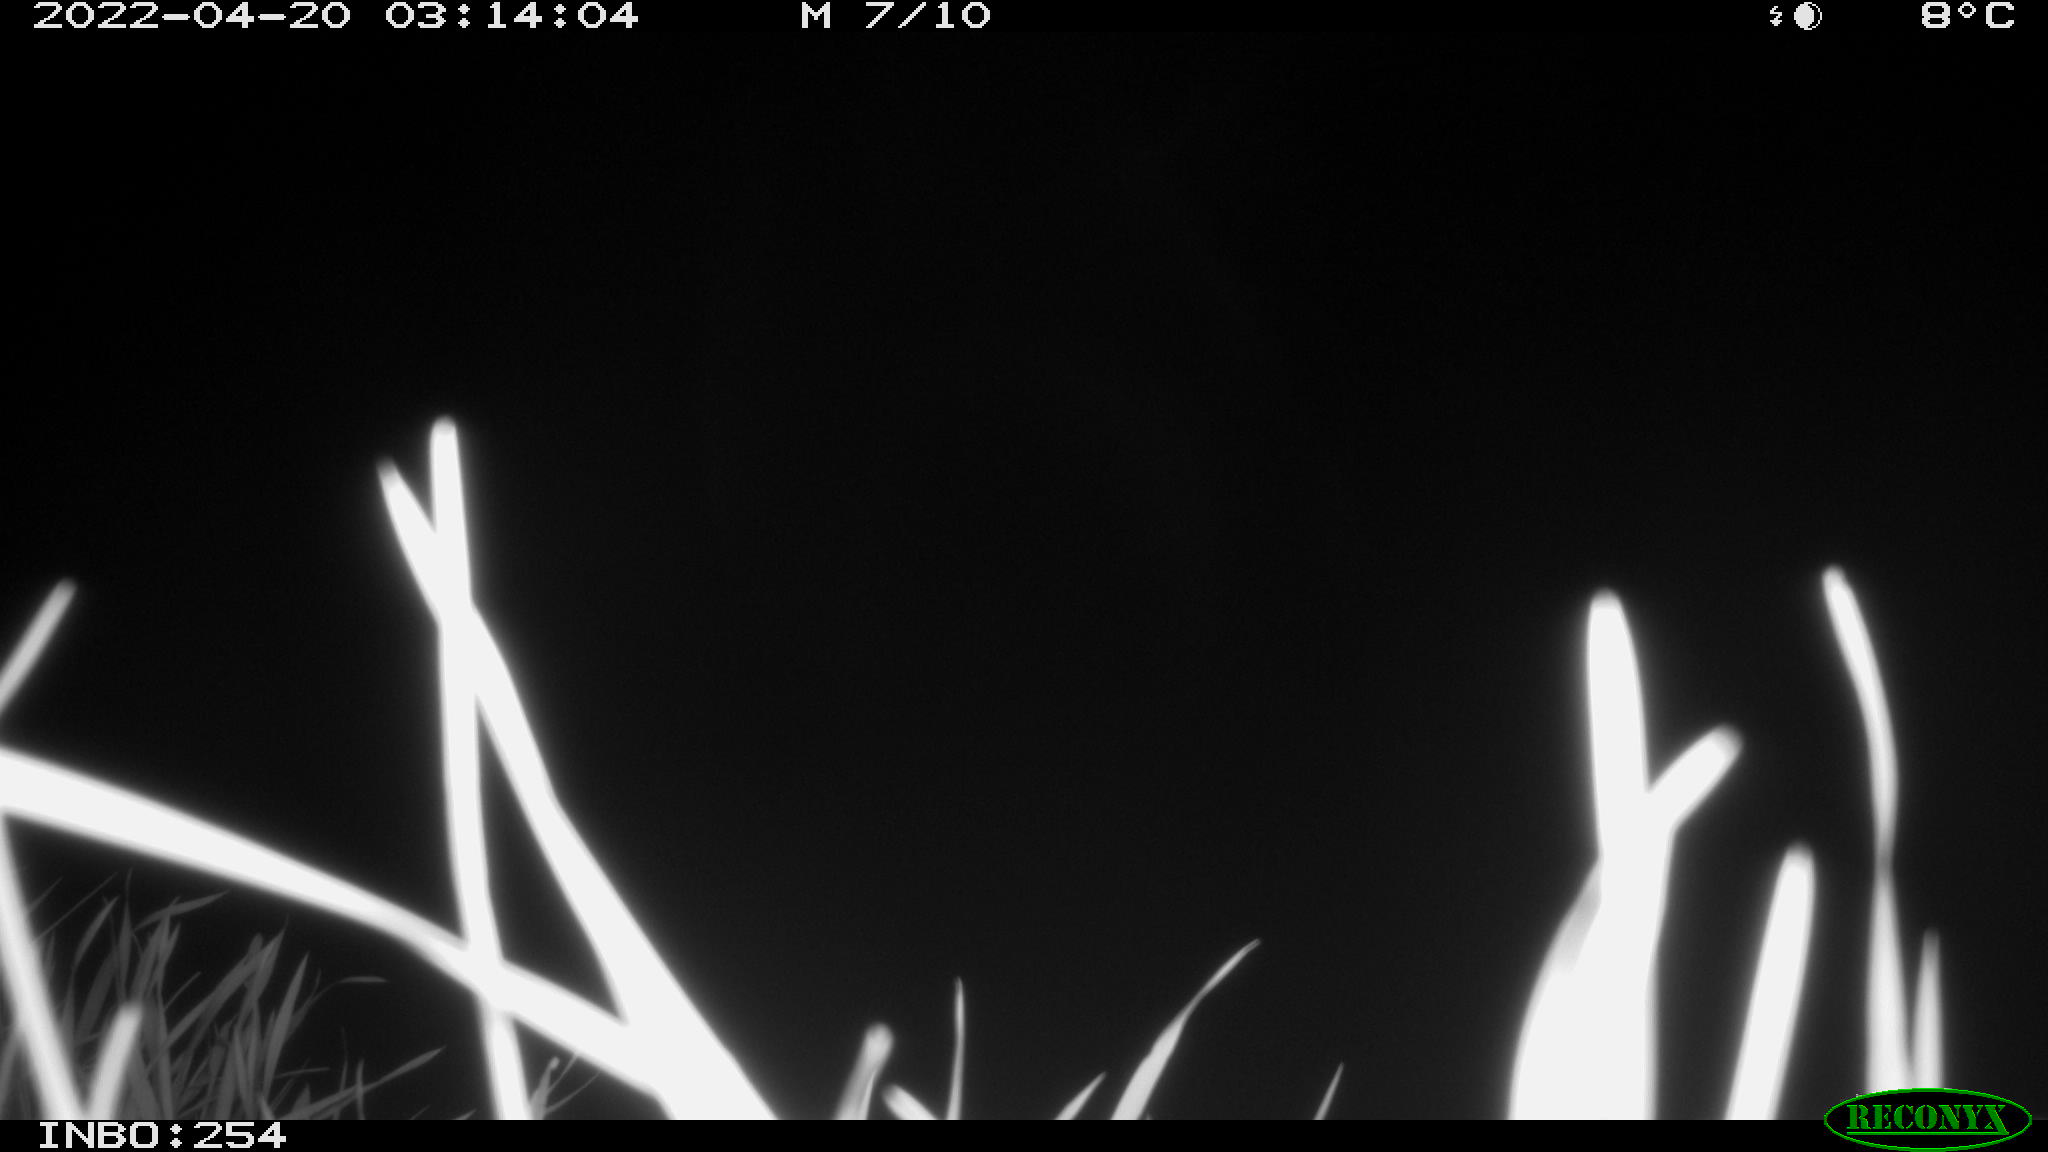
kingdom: Animalia
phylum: Chordata
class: Aves
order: Anseriformes
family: Anatidae
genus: Anas
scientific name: Anas platyrhynchos
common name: Mallard
